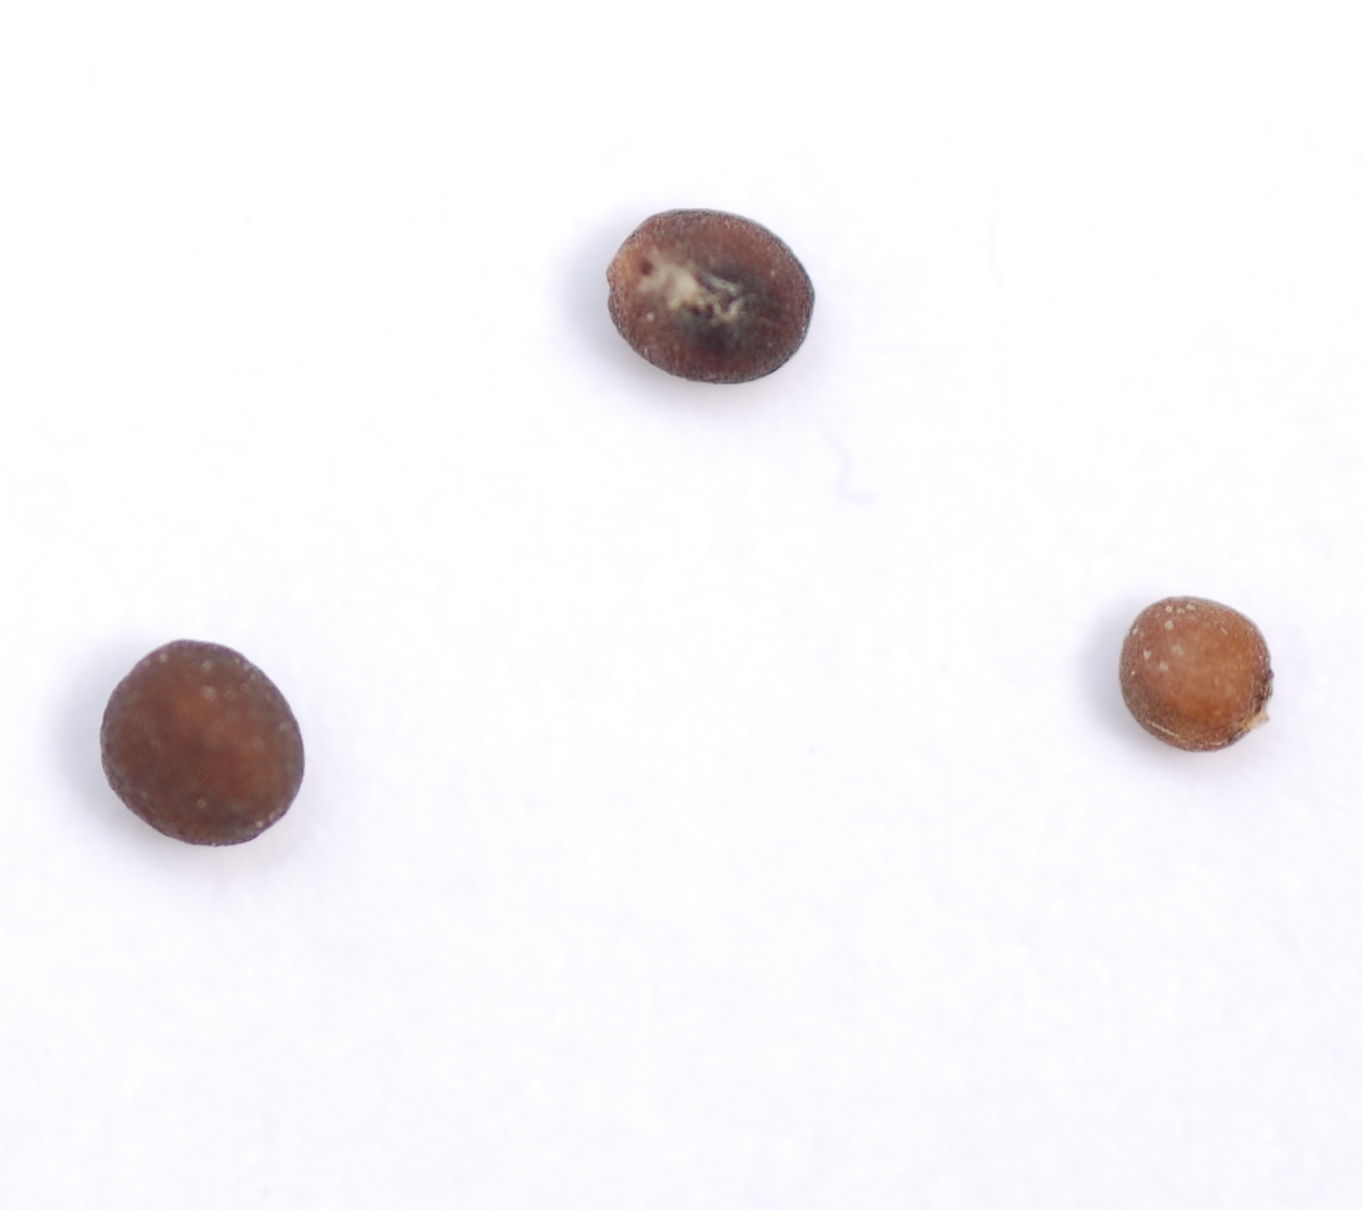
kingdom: Plantae
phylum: Tracheophyta
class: Magnoliopsida
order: Brassicales
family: Brassicaceae
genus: Brassica
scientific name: Brassica oleracea
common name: Cabbage
